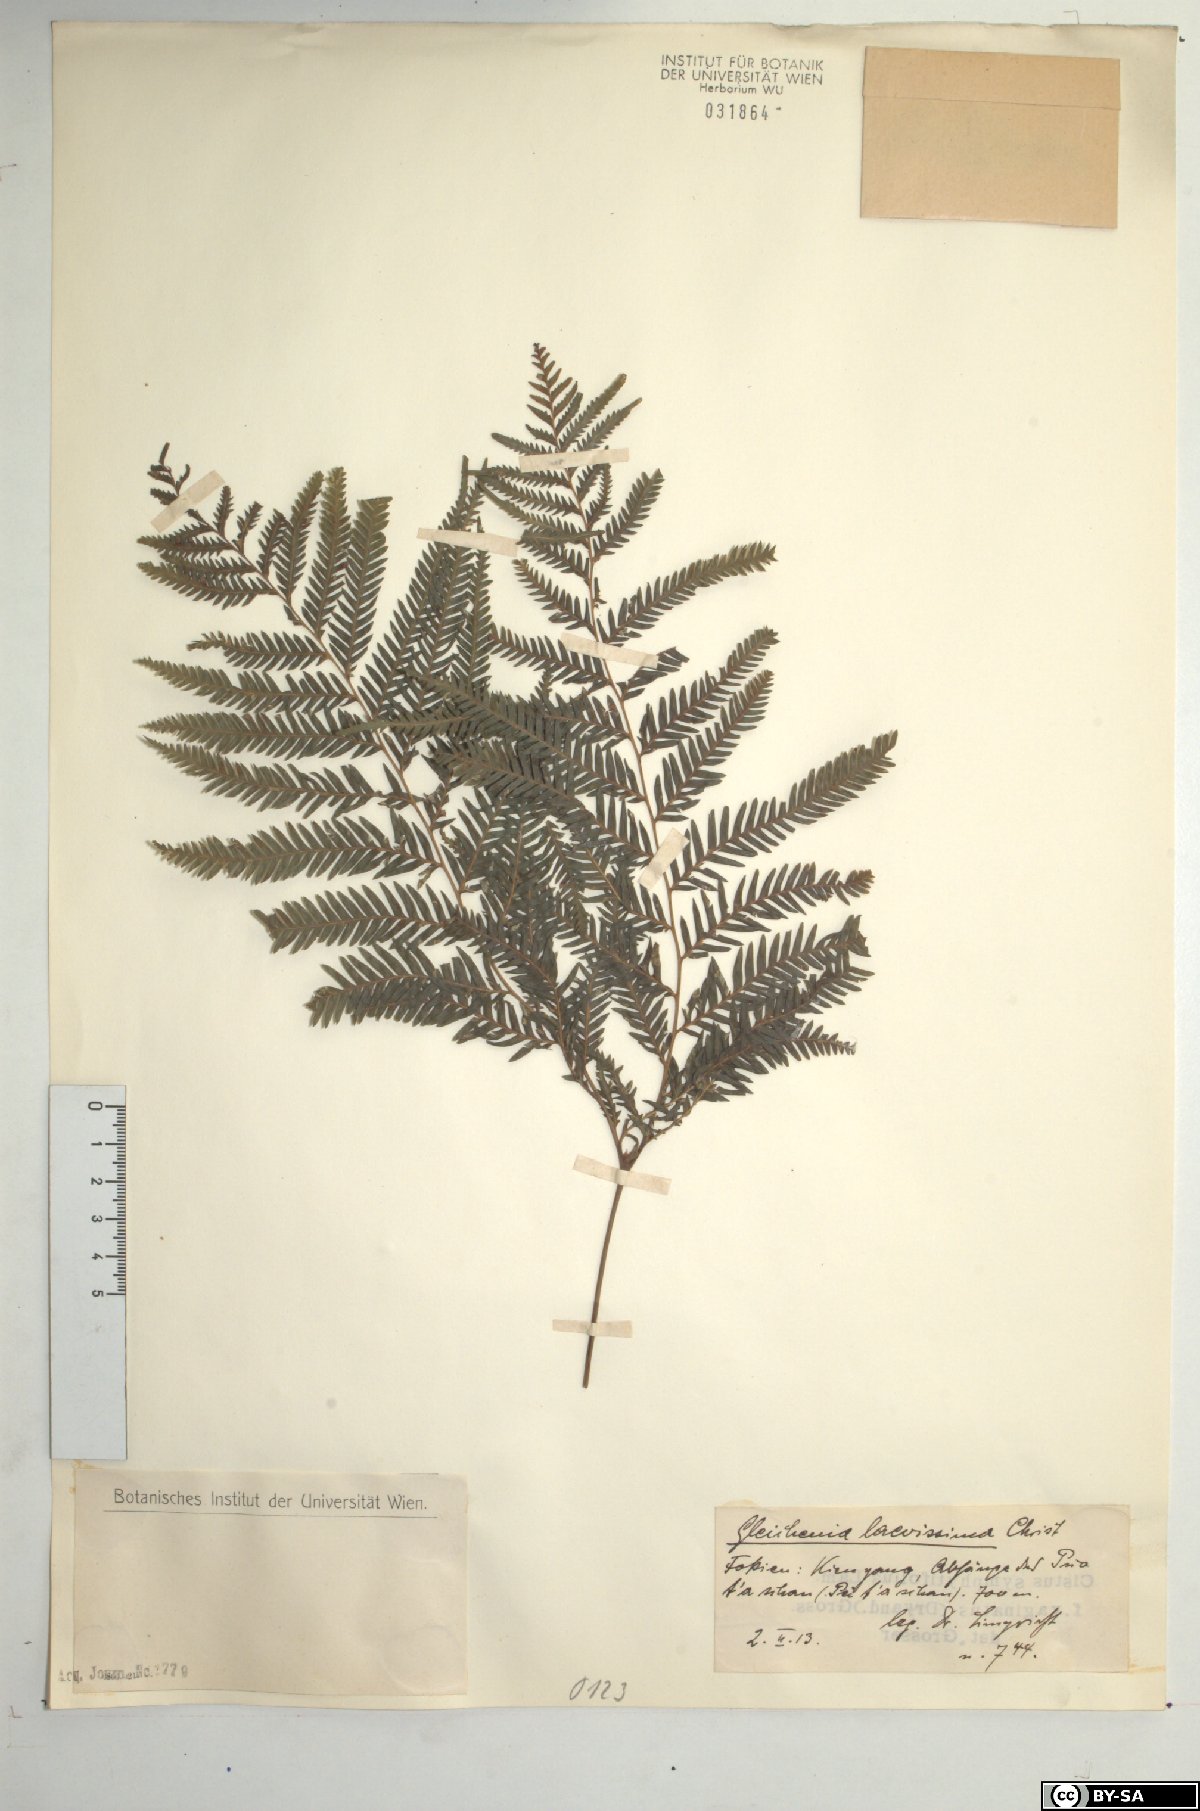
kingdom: Plantae
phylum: Tracheophyta
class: Polypodiopsida
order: Gleicheniales
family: Gleicheniaceae
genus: Diplopterygium
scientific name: Diplopterygium laevissimum
